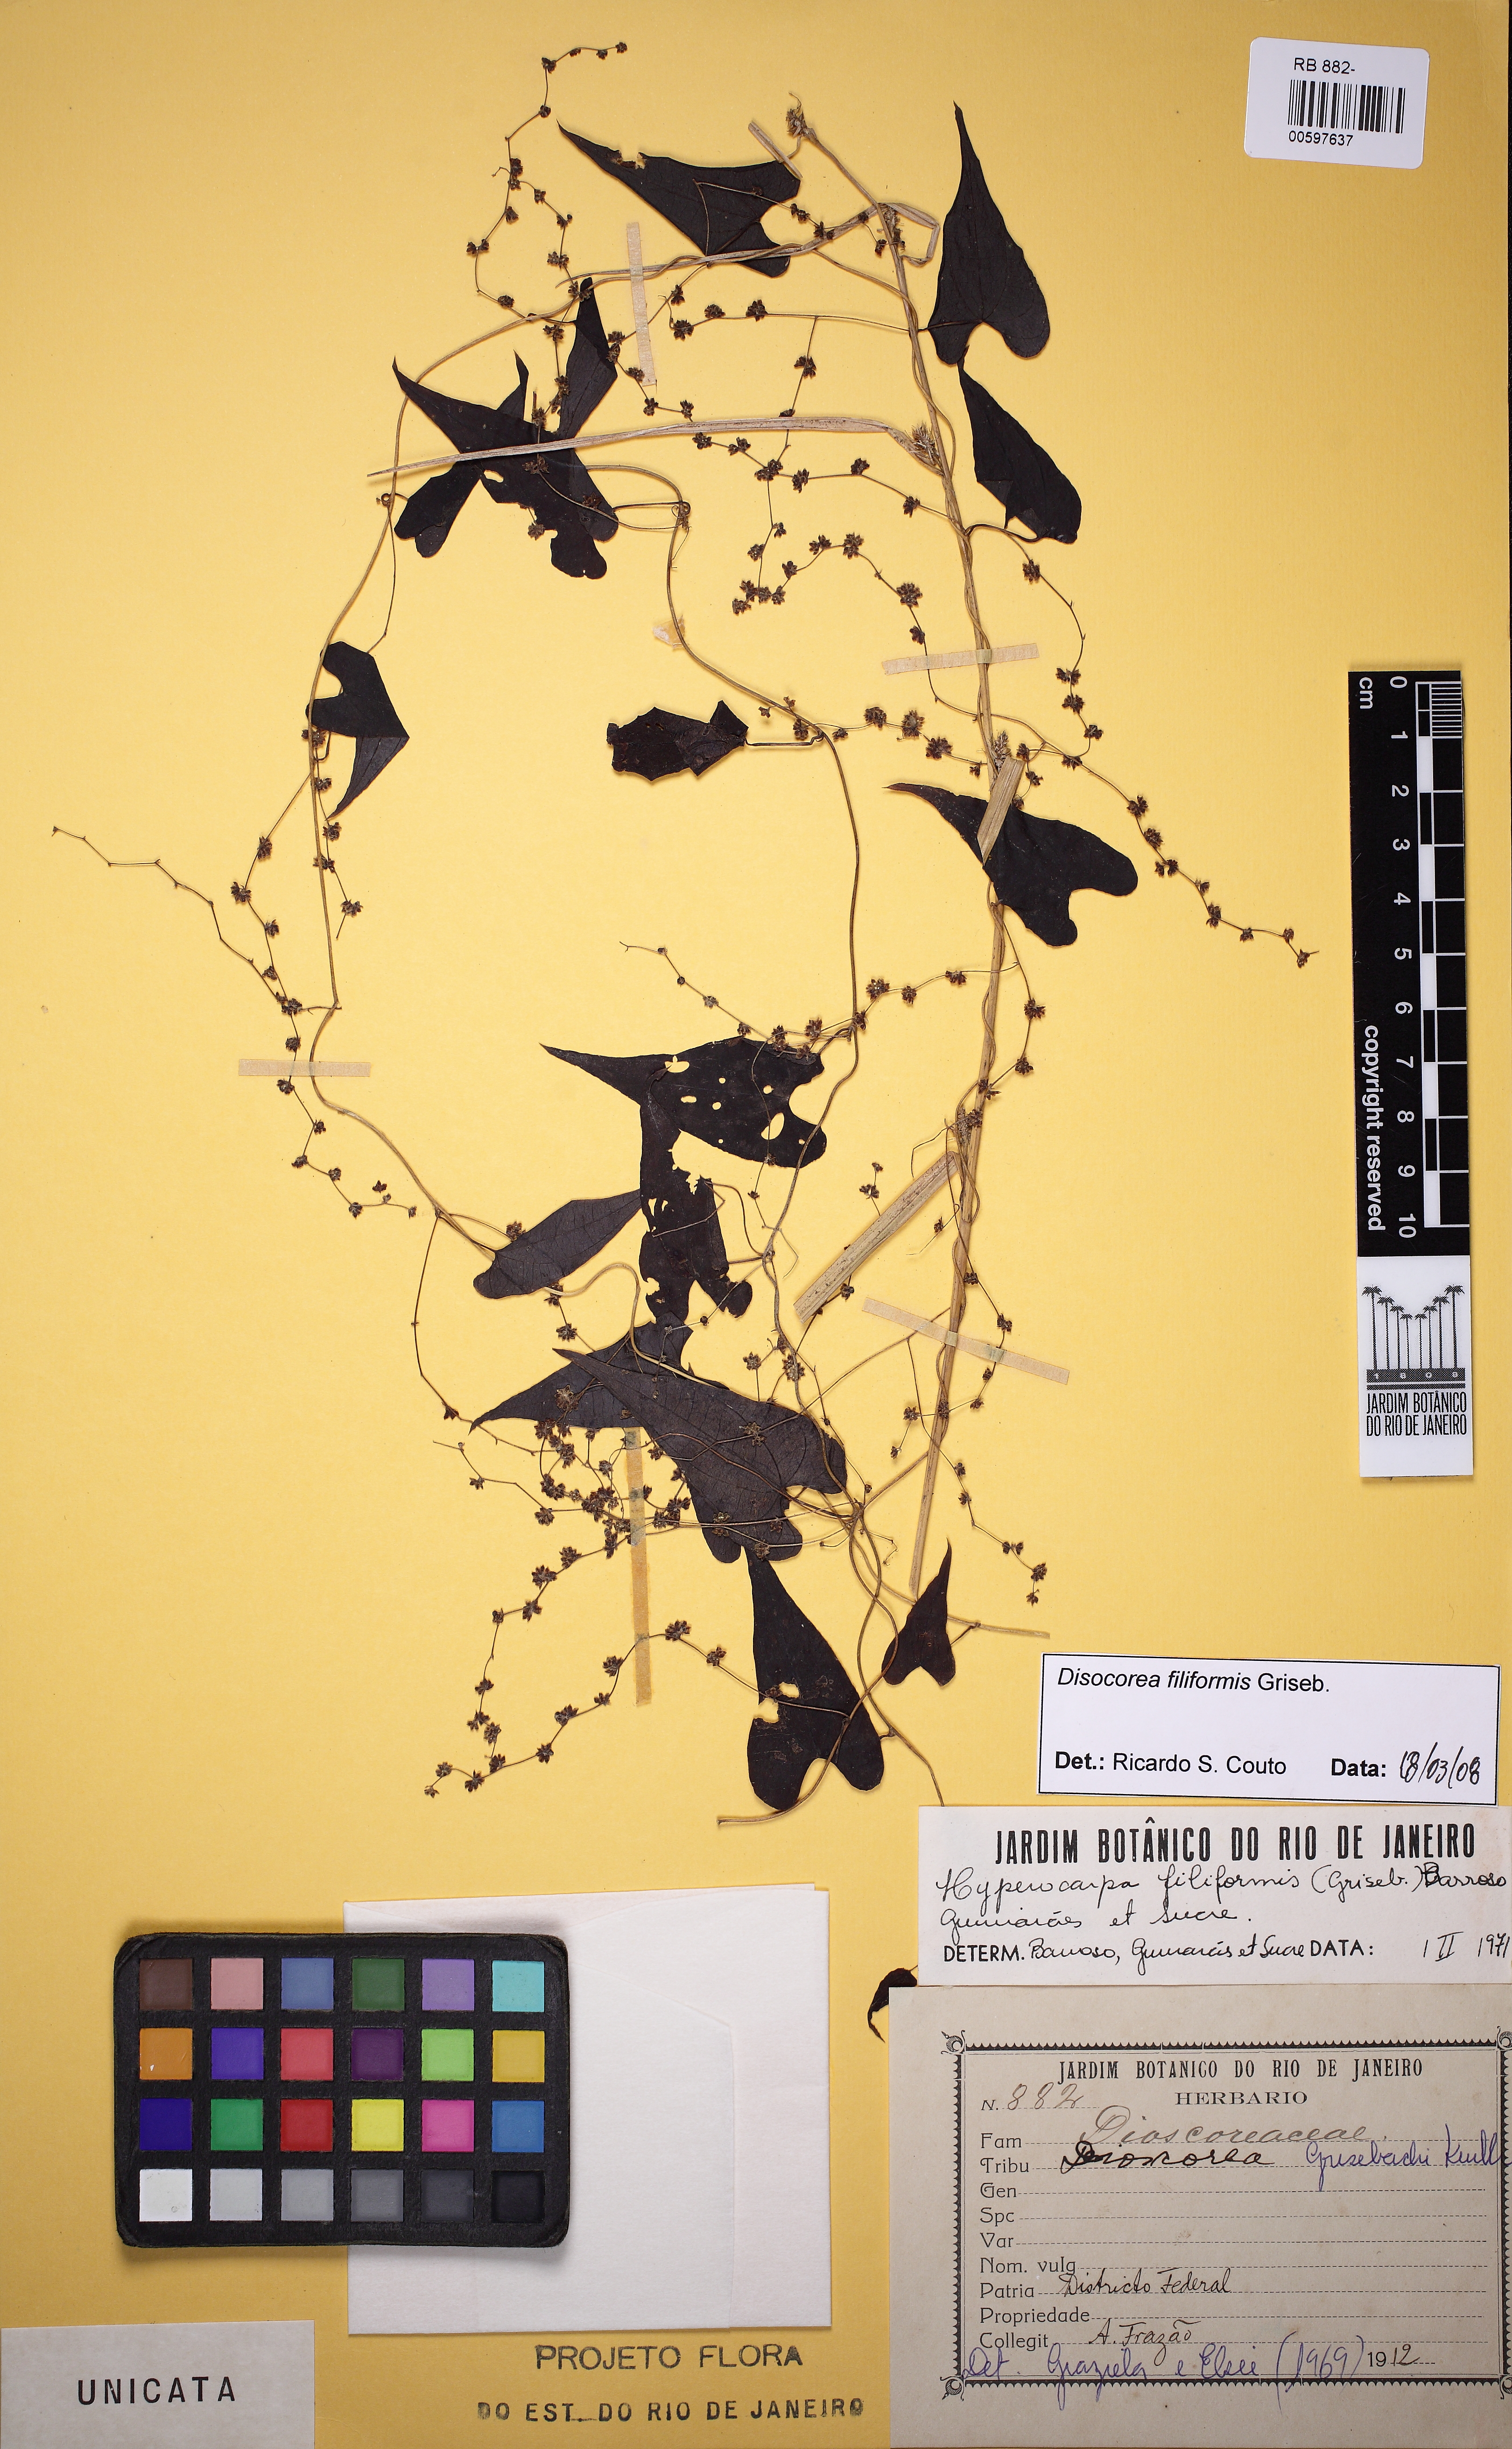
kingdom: Plantae
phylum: Tracheophyta
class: Liliopsida
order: Dioscoreales
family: Dioscoreaceae
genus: Dioscorea
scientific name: Dioscorea grisebachii
